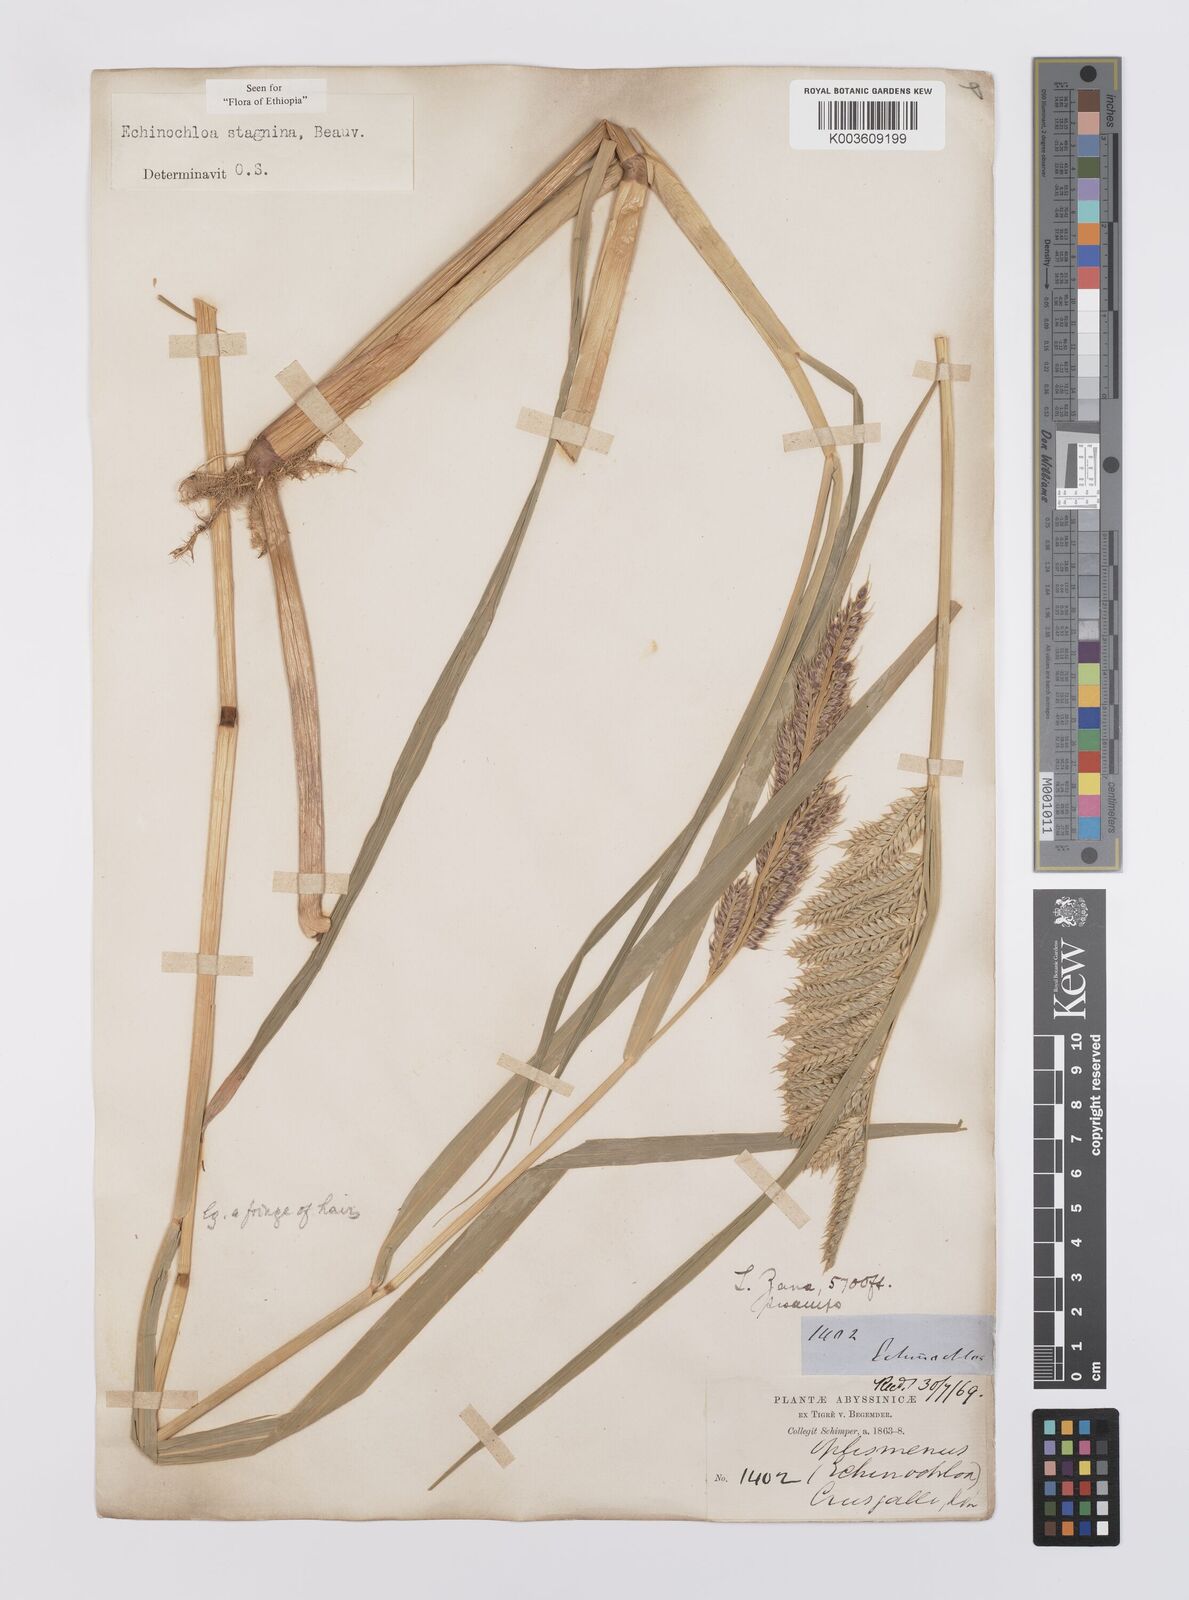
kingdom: Plantae
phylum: Tracheophyta
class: Liliopsida
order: Poales
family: Poaceae
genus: Echinochloa
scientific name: Echinochloa stagnina
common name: Burgu grass
